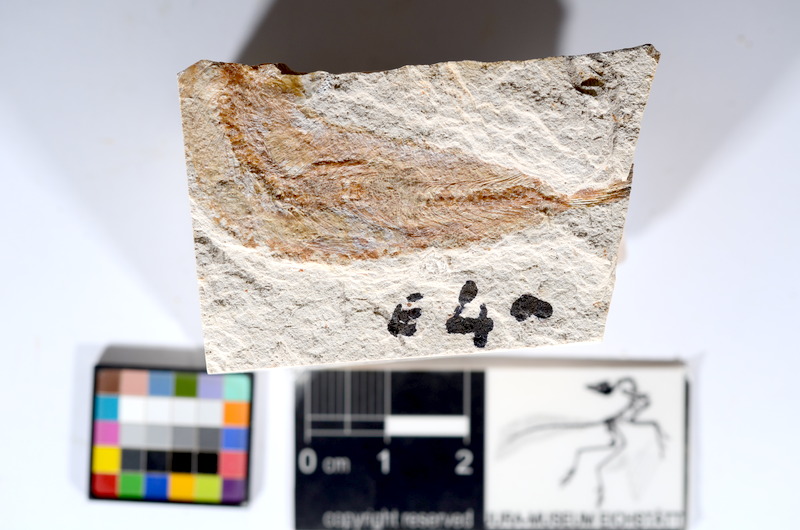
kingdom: Animalia
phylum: Chordata
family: Ascalaboidae
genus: Tharsis
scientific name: Tharsis dubius
